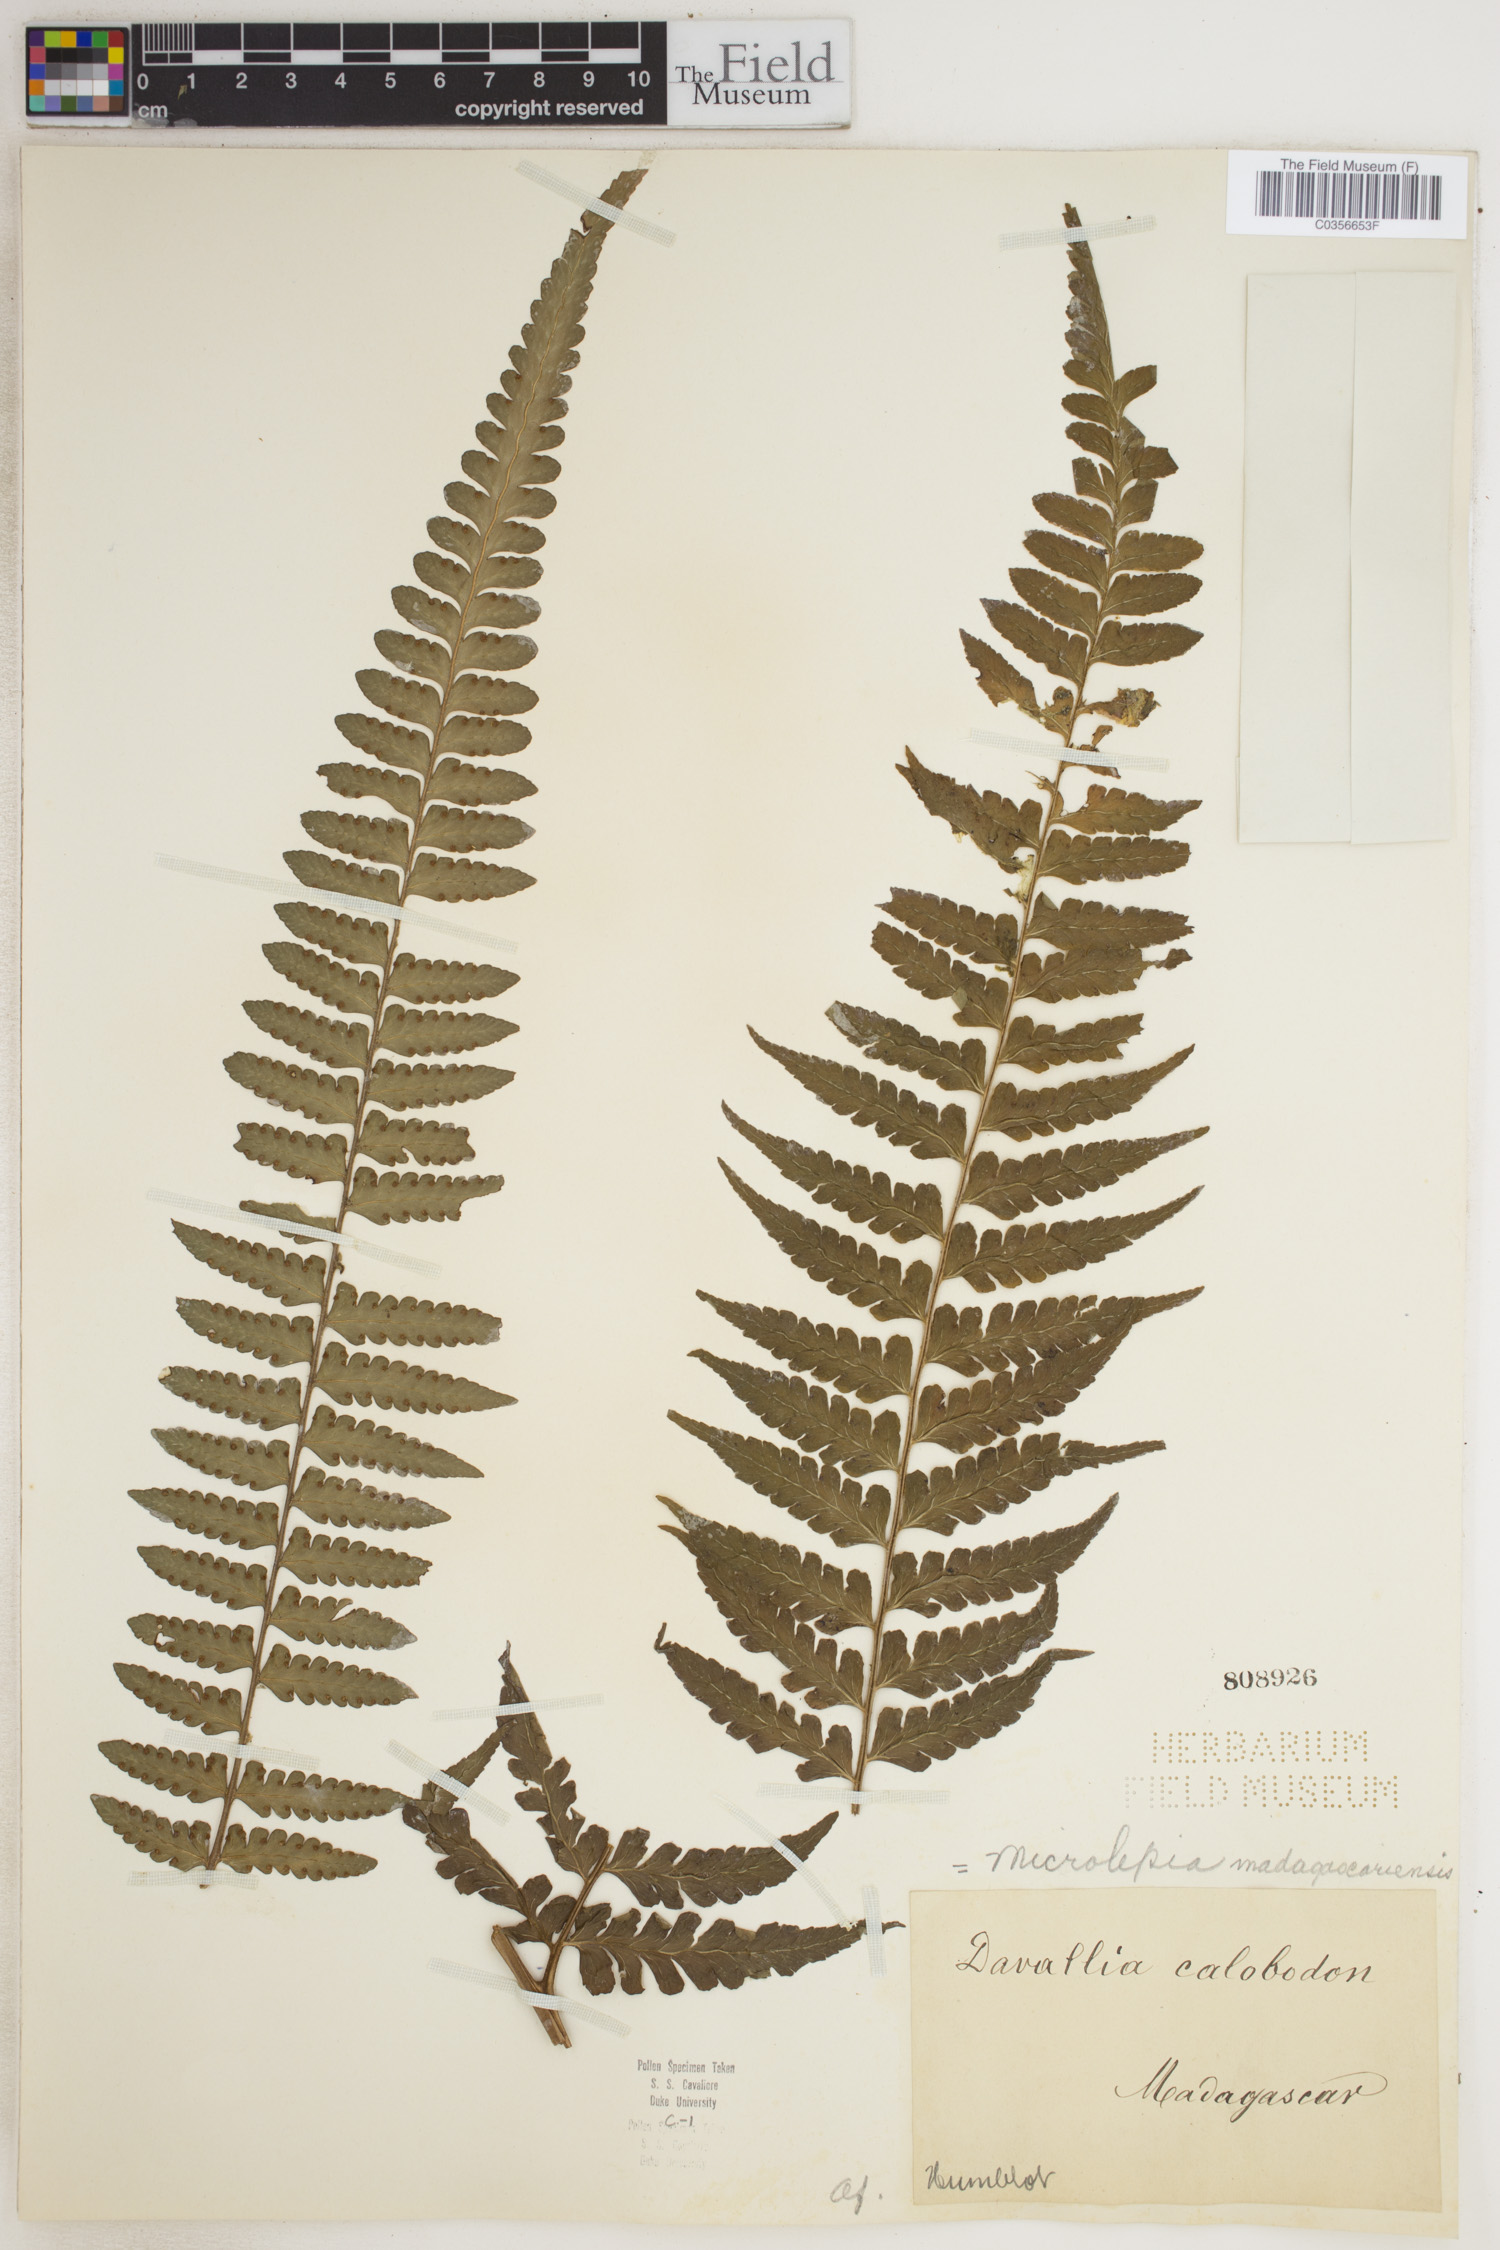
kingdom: Plantae
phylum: Tracheophyta
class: Polypodiopsida
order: Polypodiales
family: Dennstaedtiaceae
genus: Dennstaedtia
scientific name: Dennstaedtia madagascariensis
